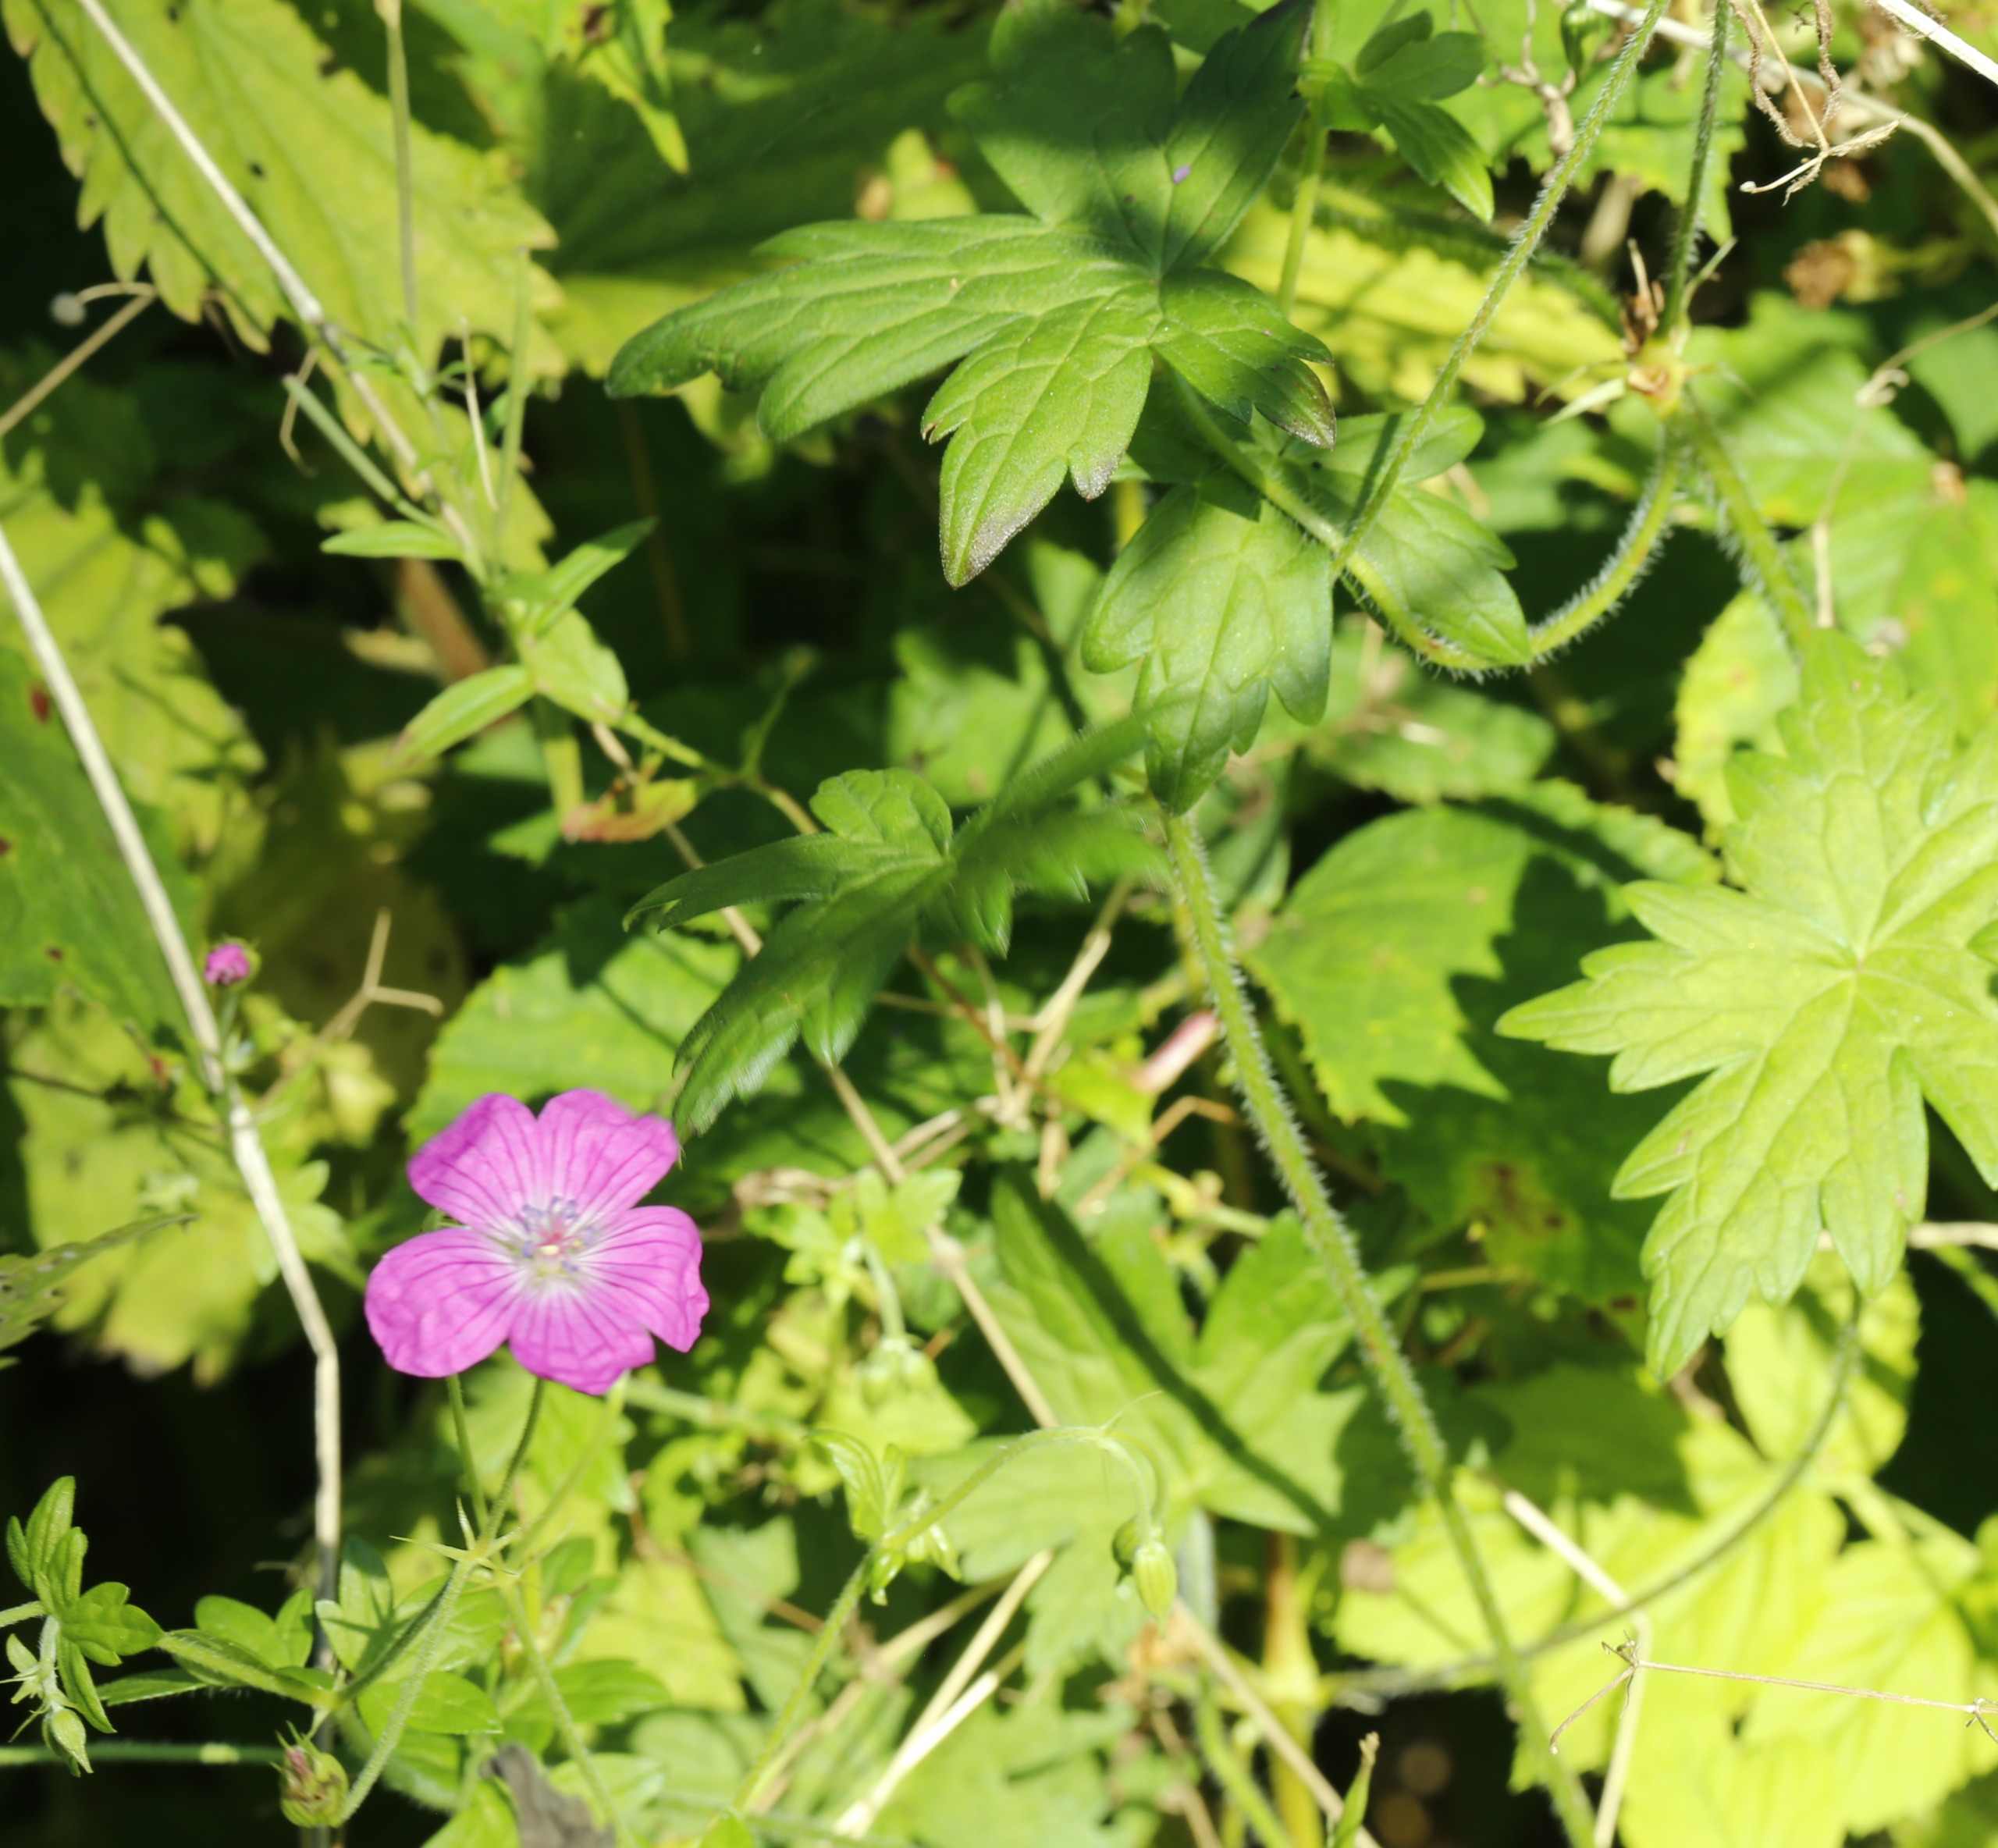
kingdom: Plantae
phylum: Tracheophyta
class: Magnoliopsida
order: Geraniales
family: Geraniaceae
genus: Geranium
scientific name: Geranium palustre
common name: Kær-storkenæb
